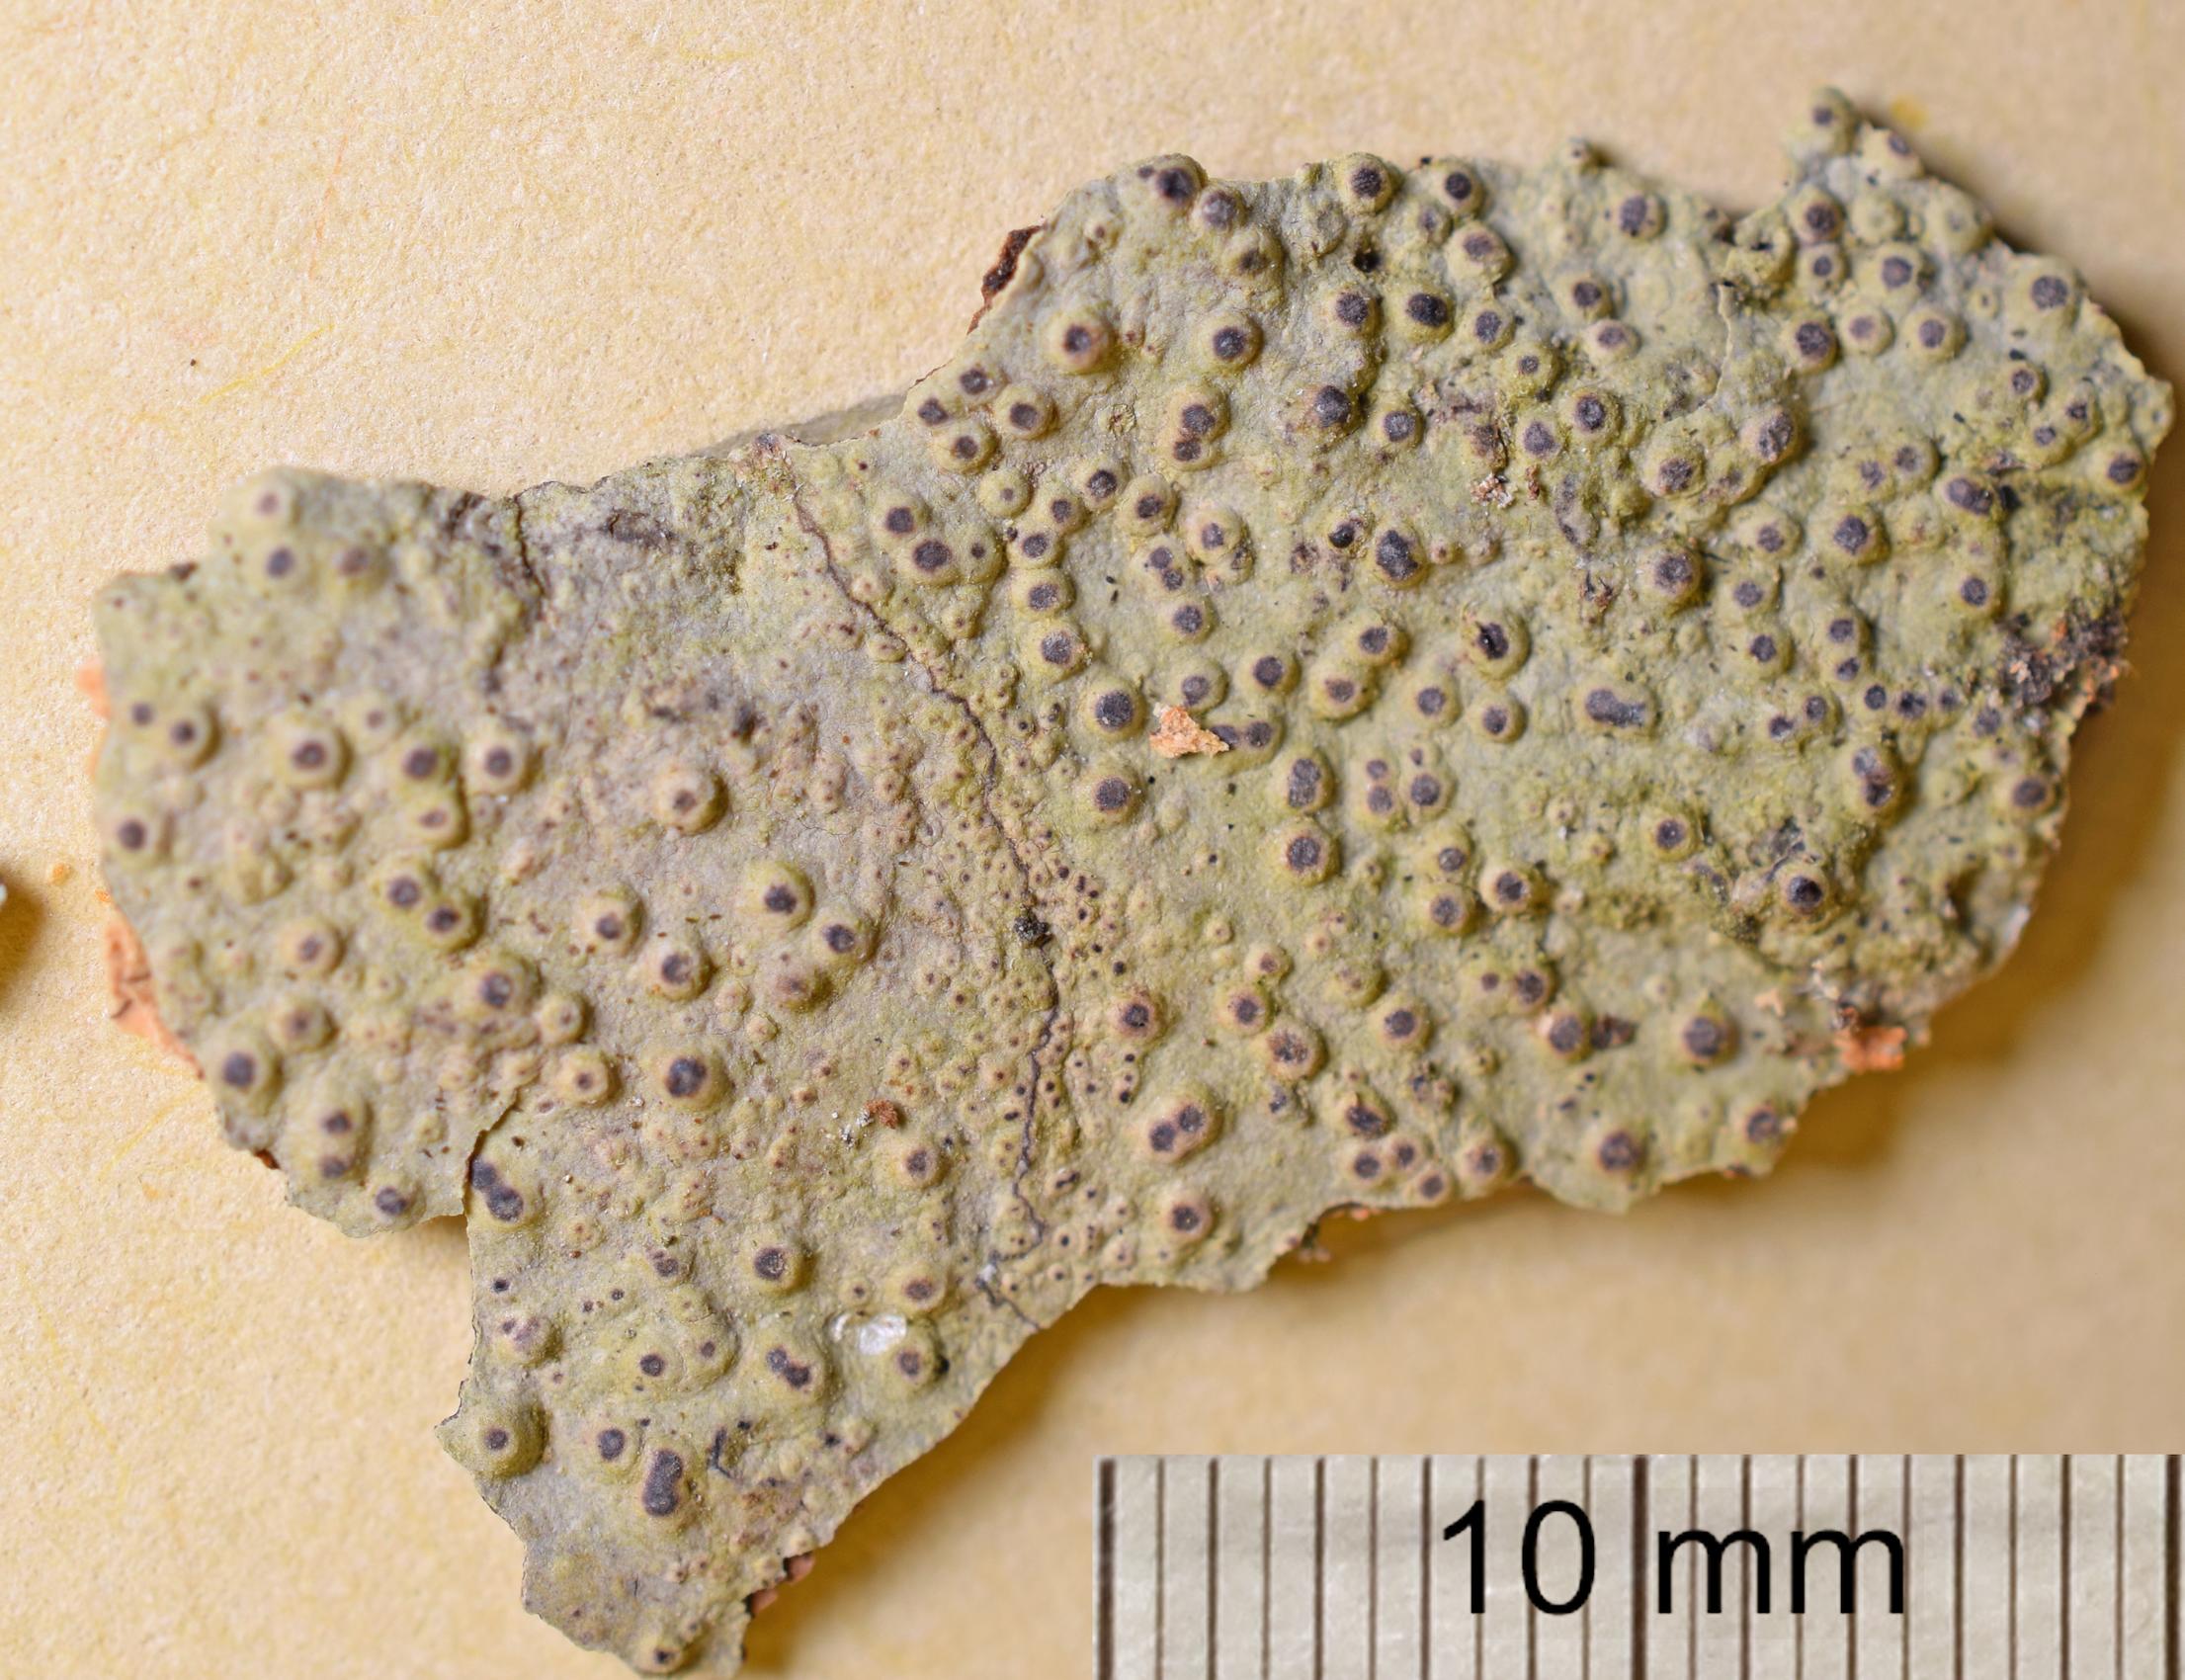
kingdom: Fungi
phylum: Ascomycota
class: Lecanoromycetes
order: Ostropales
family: Porinaceae
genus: Porina
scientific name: Porina
